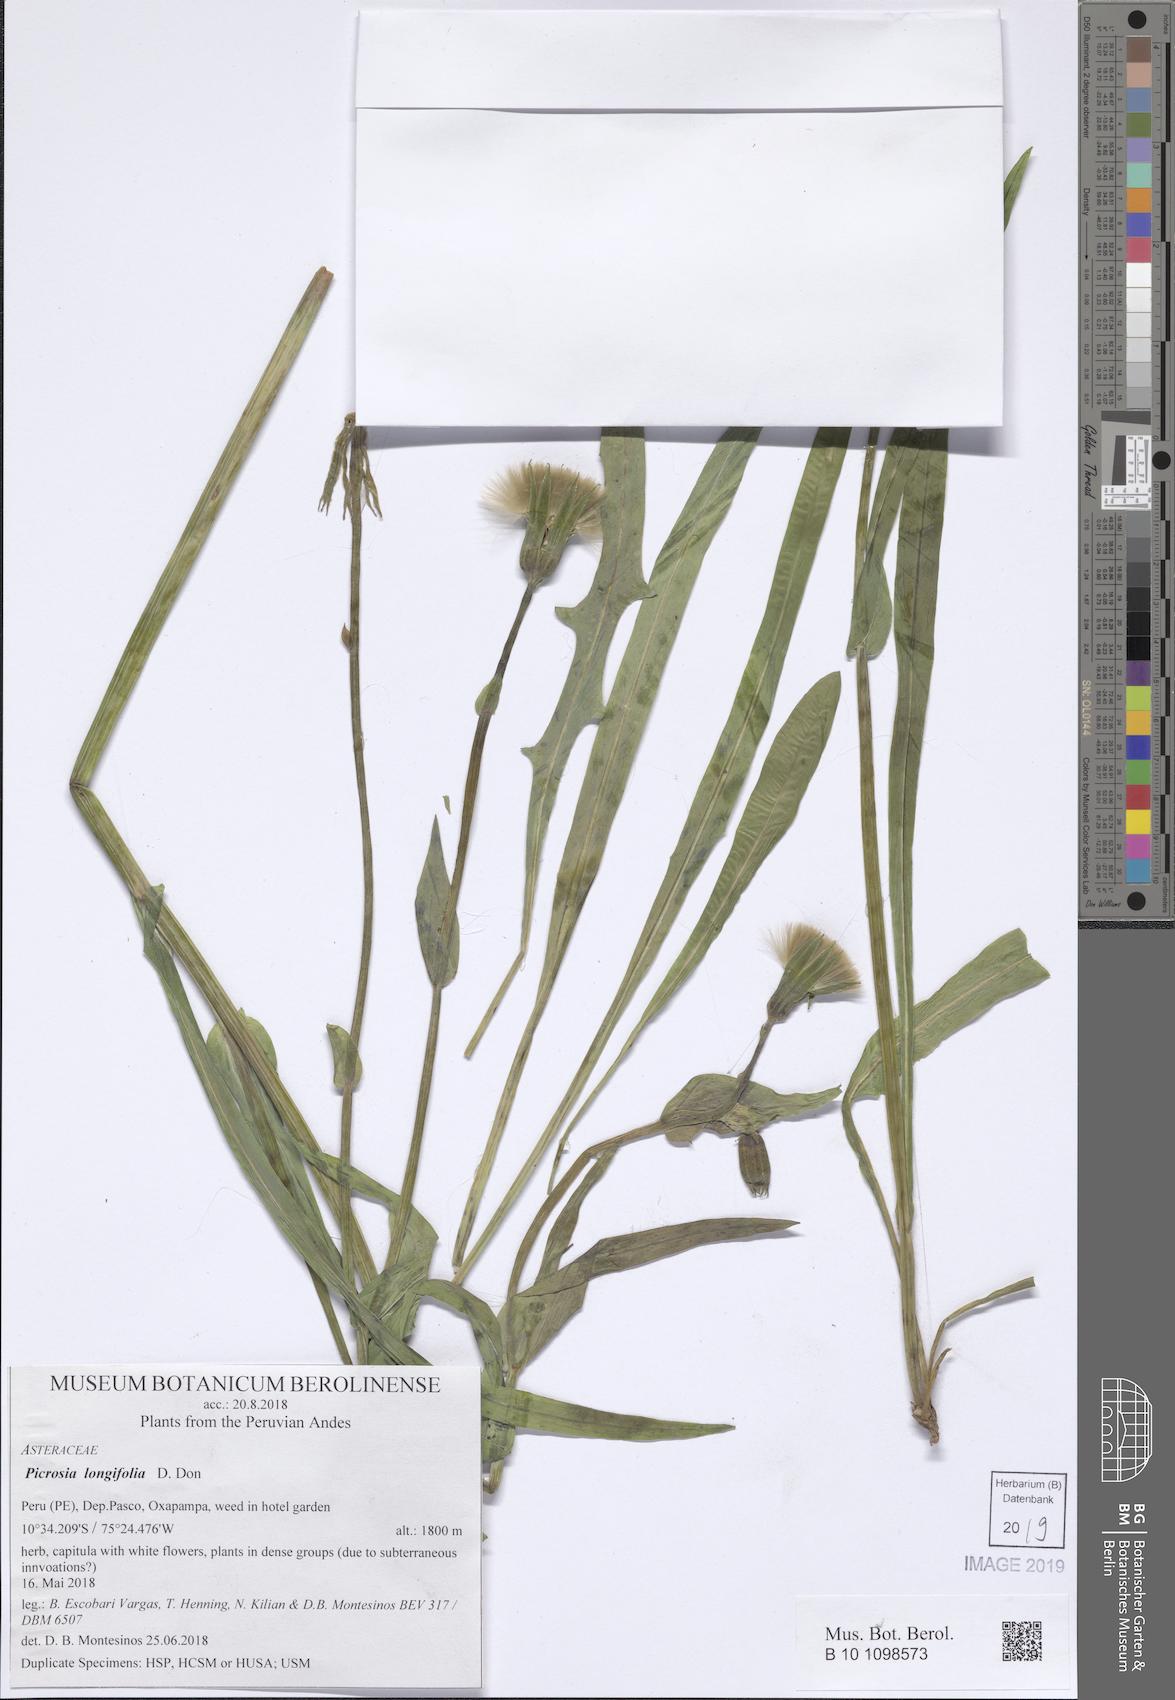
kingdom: Plantae
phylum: Tracheophyta
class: Magnoliopsida
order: Asterales
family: Asteraceae
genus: Picrosia
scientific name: Picrosia longifolia
